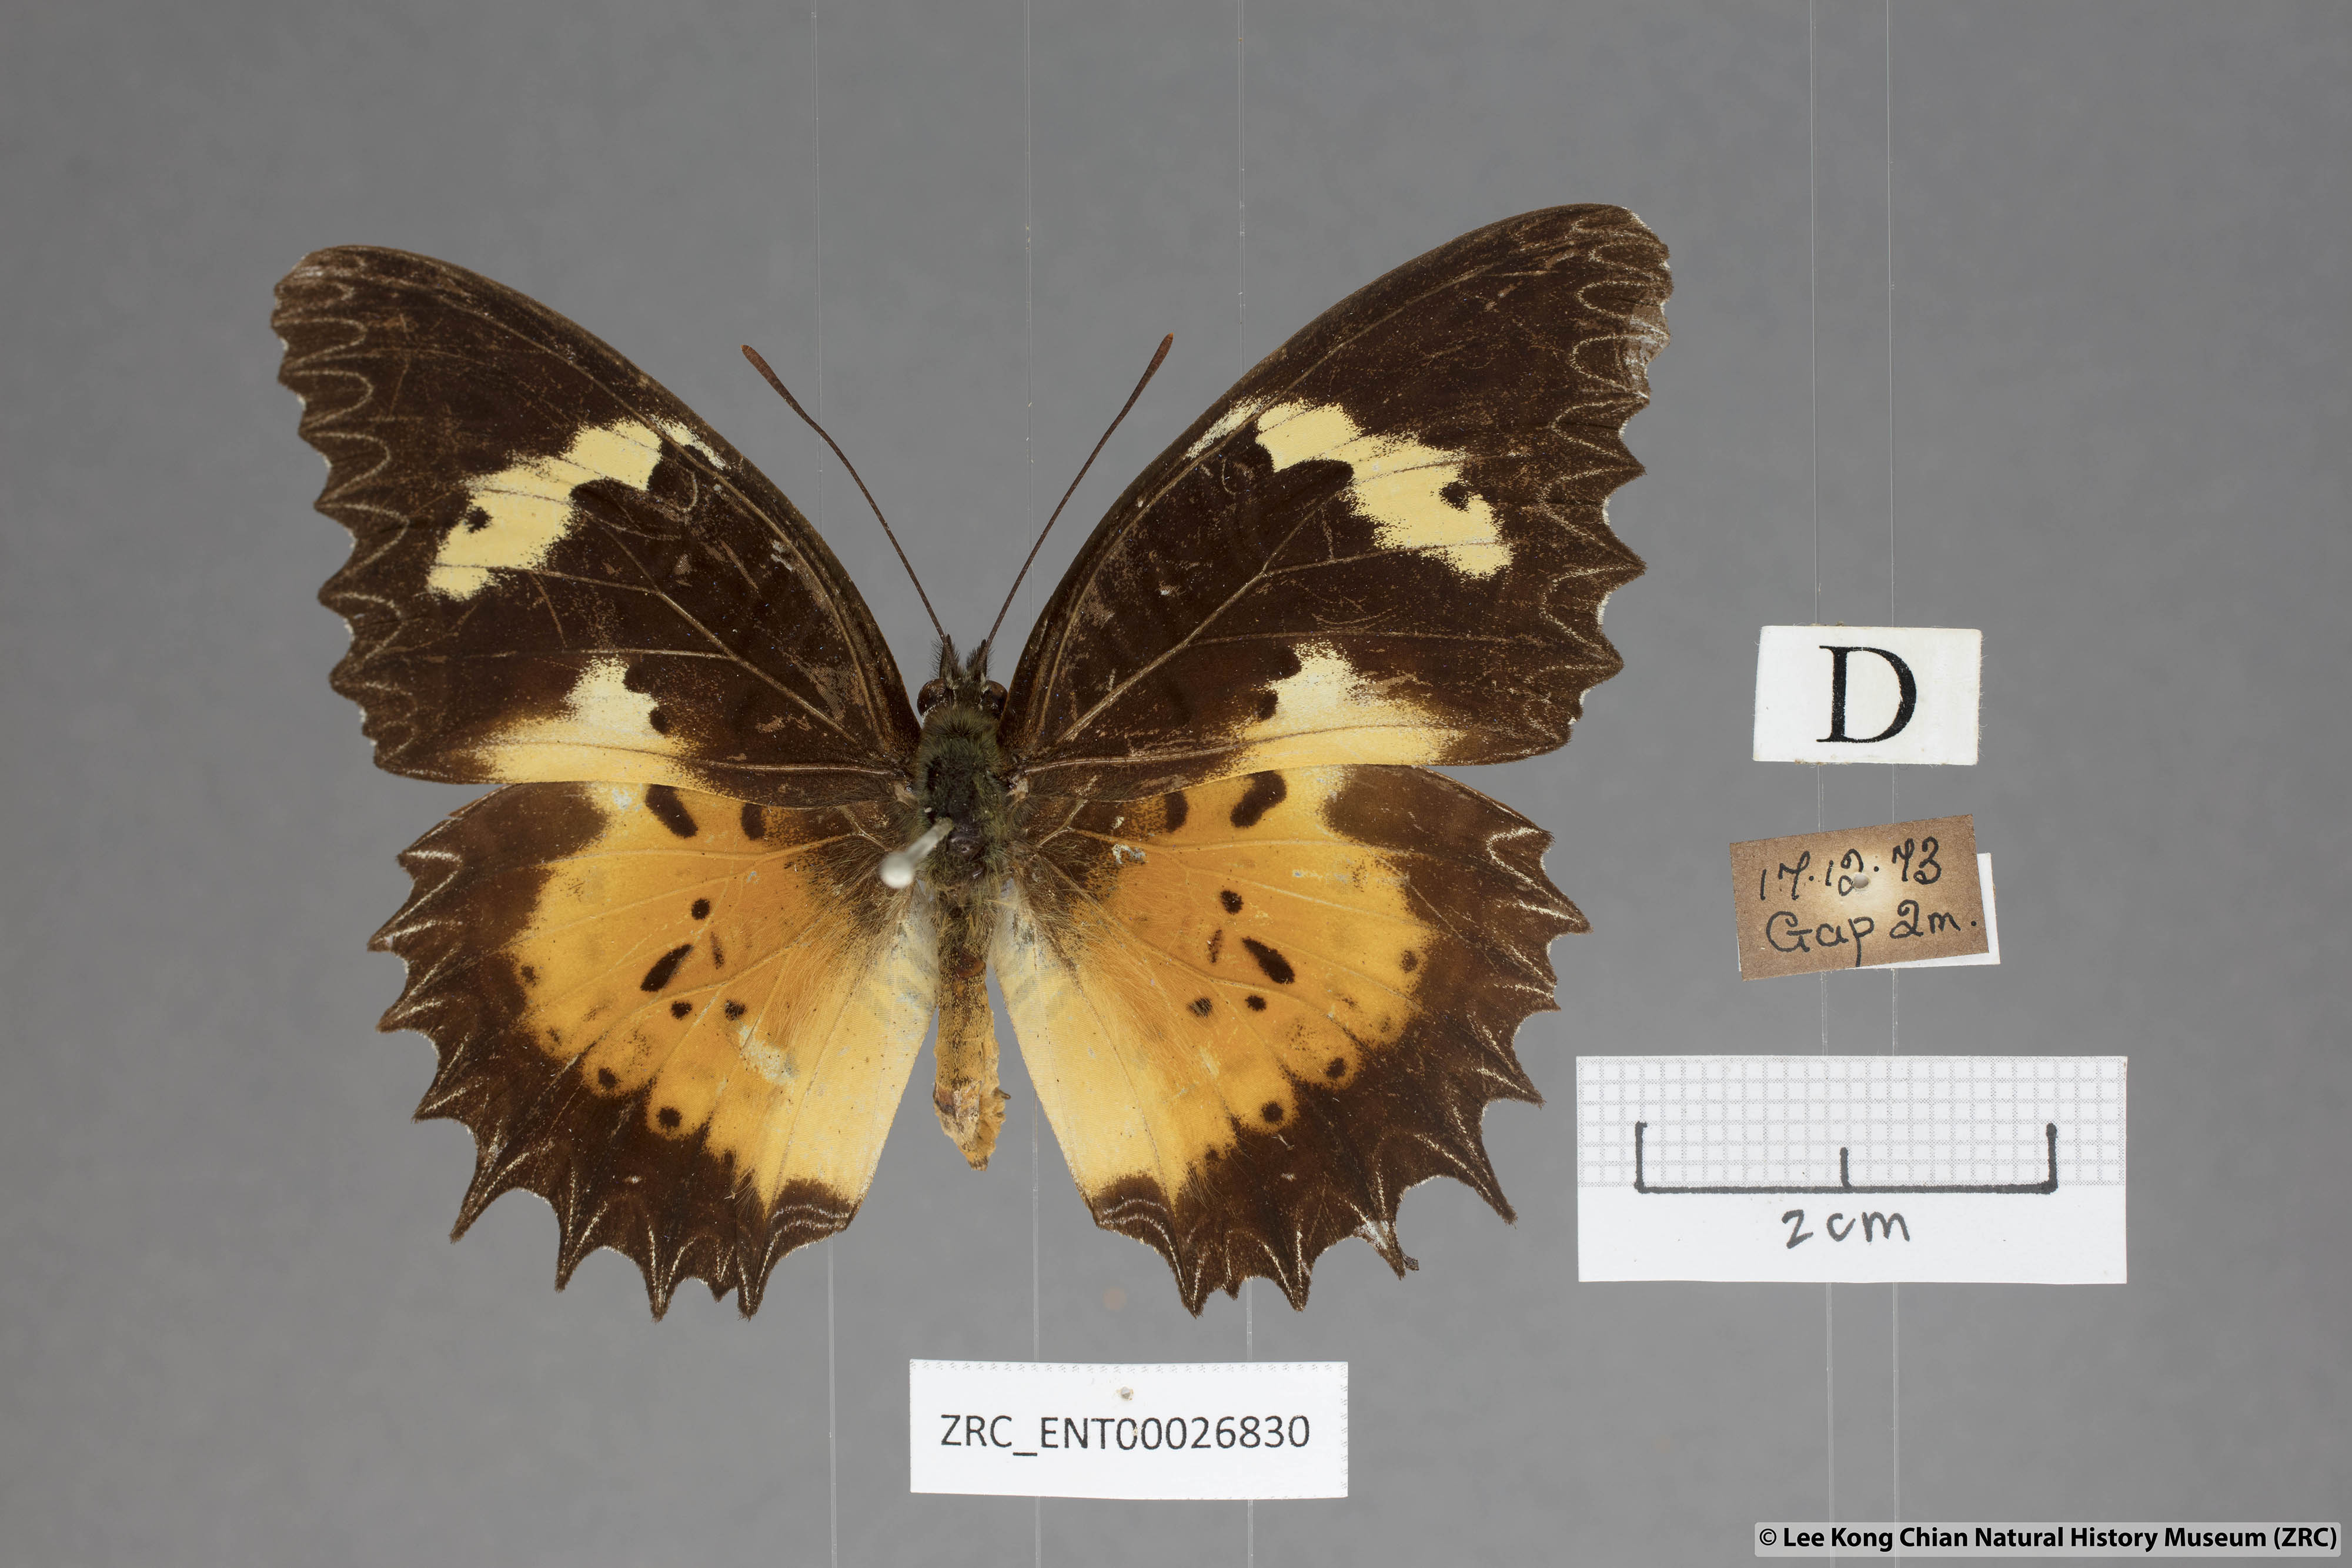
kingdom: Animalia
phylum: Arthropoda
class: Insecta
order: Lepidoptera
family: Nymphalidae
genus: Cethosia
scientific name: Cethosia hypsea
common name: Malayan lacewing butterfly
